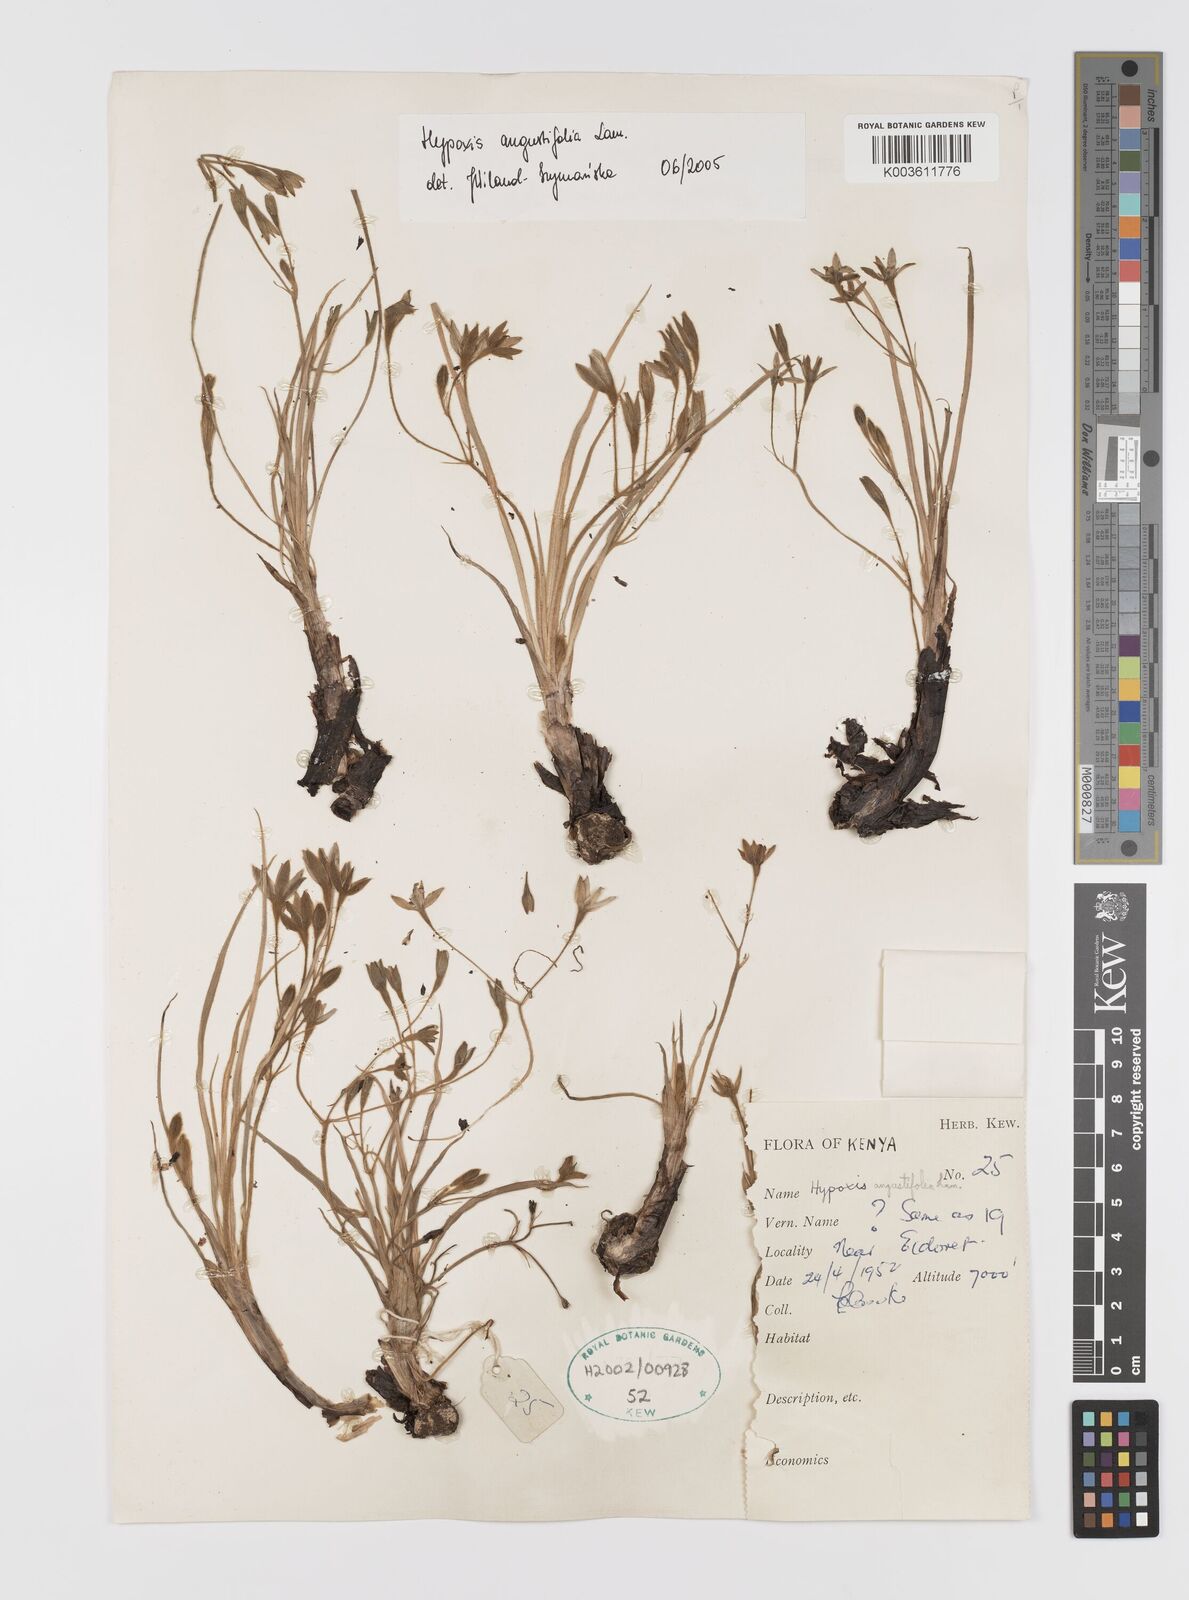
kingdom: Plantae
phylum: Tracheophyta
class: Liliopsida
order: Asparagales
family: Hypoxidaceae
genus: Hypoxis
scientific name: Hypoxis angustifolia
